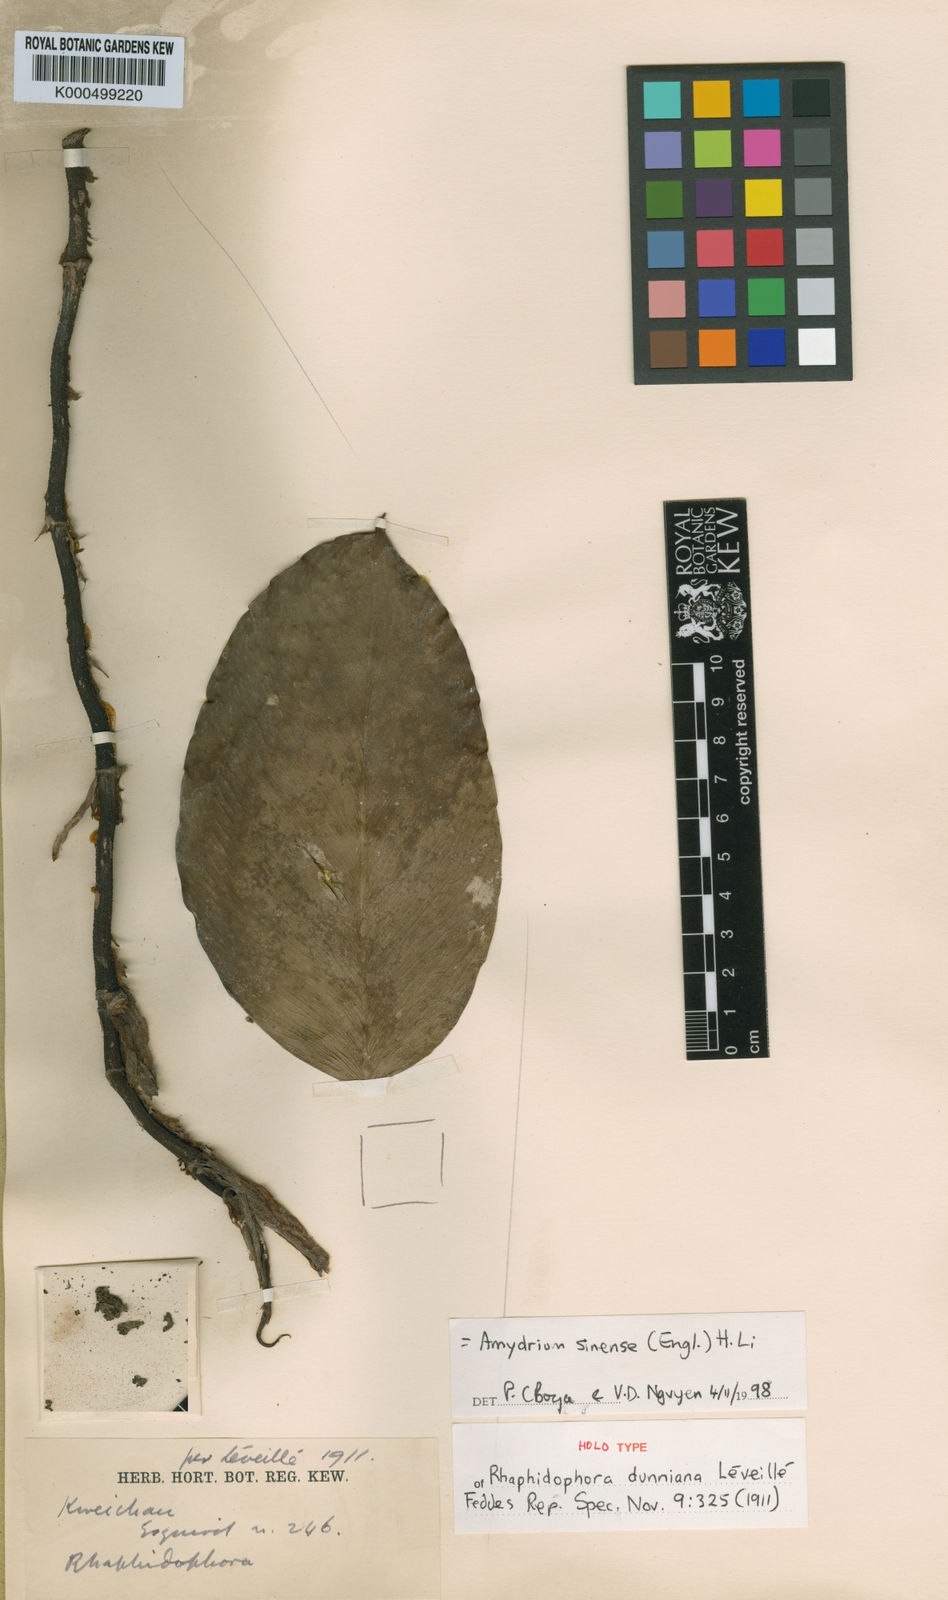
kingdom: Plantae
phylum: Tracheophyta
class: Liliopsida
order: Alismatales
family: Araceae
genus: Amydrium
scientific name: Amydrium sinense
